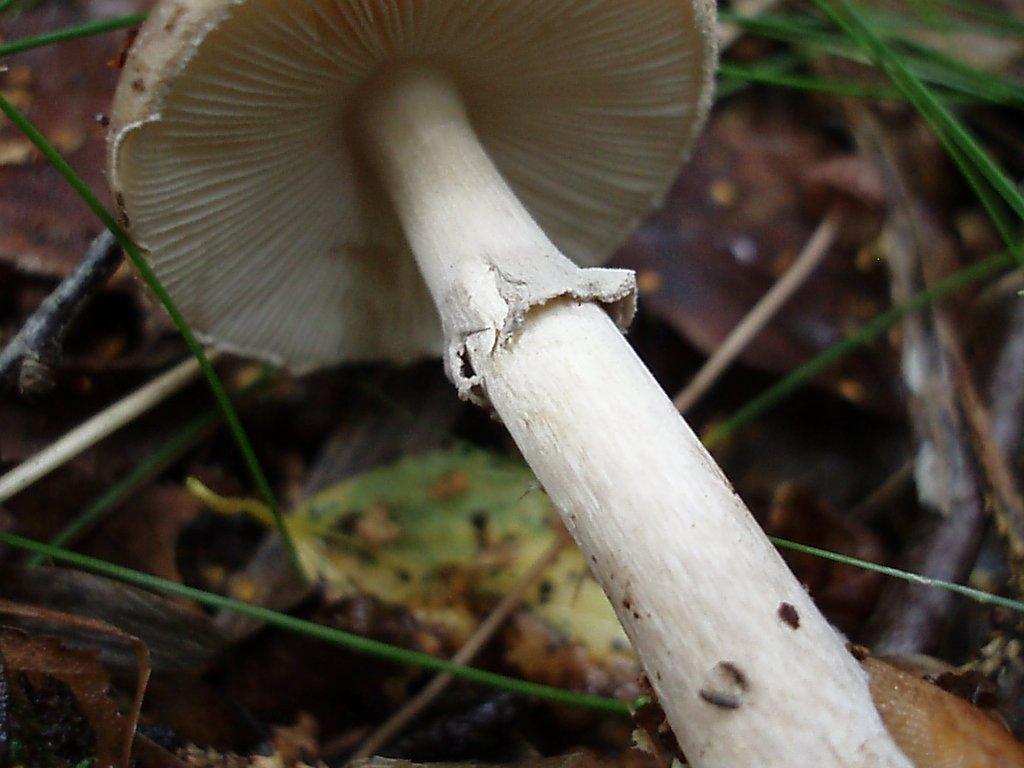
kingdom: Fungi
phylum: Basidiomycota
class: Agaricomycetes
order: Agaricales
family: Amanitaceae
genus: Amanita
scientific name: Amanita porphyria
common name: porfyr-fluesvamp
